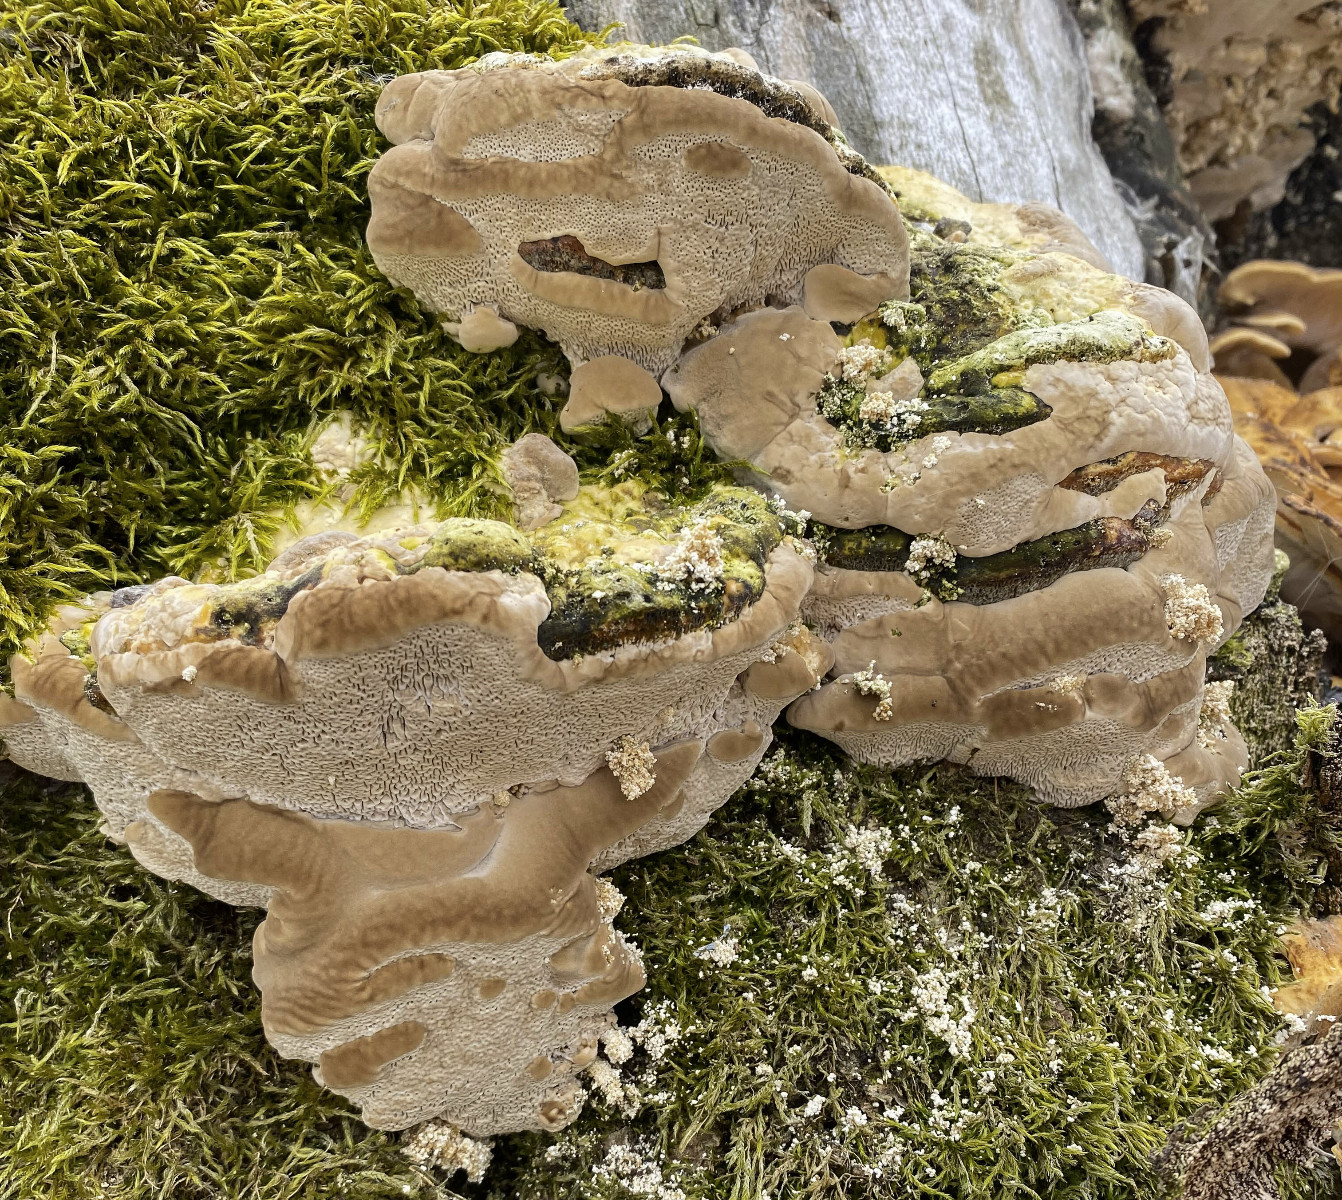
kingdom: Fungi
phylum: Basidiomycota
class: Agaricomycetes
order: Polyporales
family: Polyporaceae
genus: Trametes
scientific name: Trametes gibbosa
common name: puklet læderporesvamp
